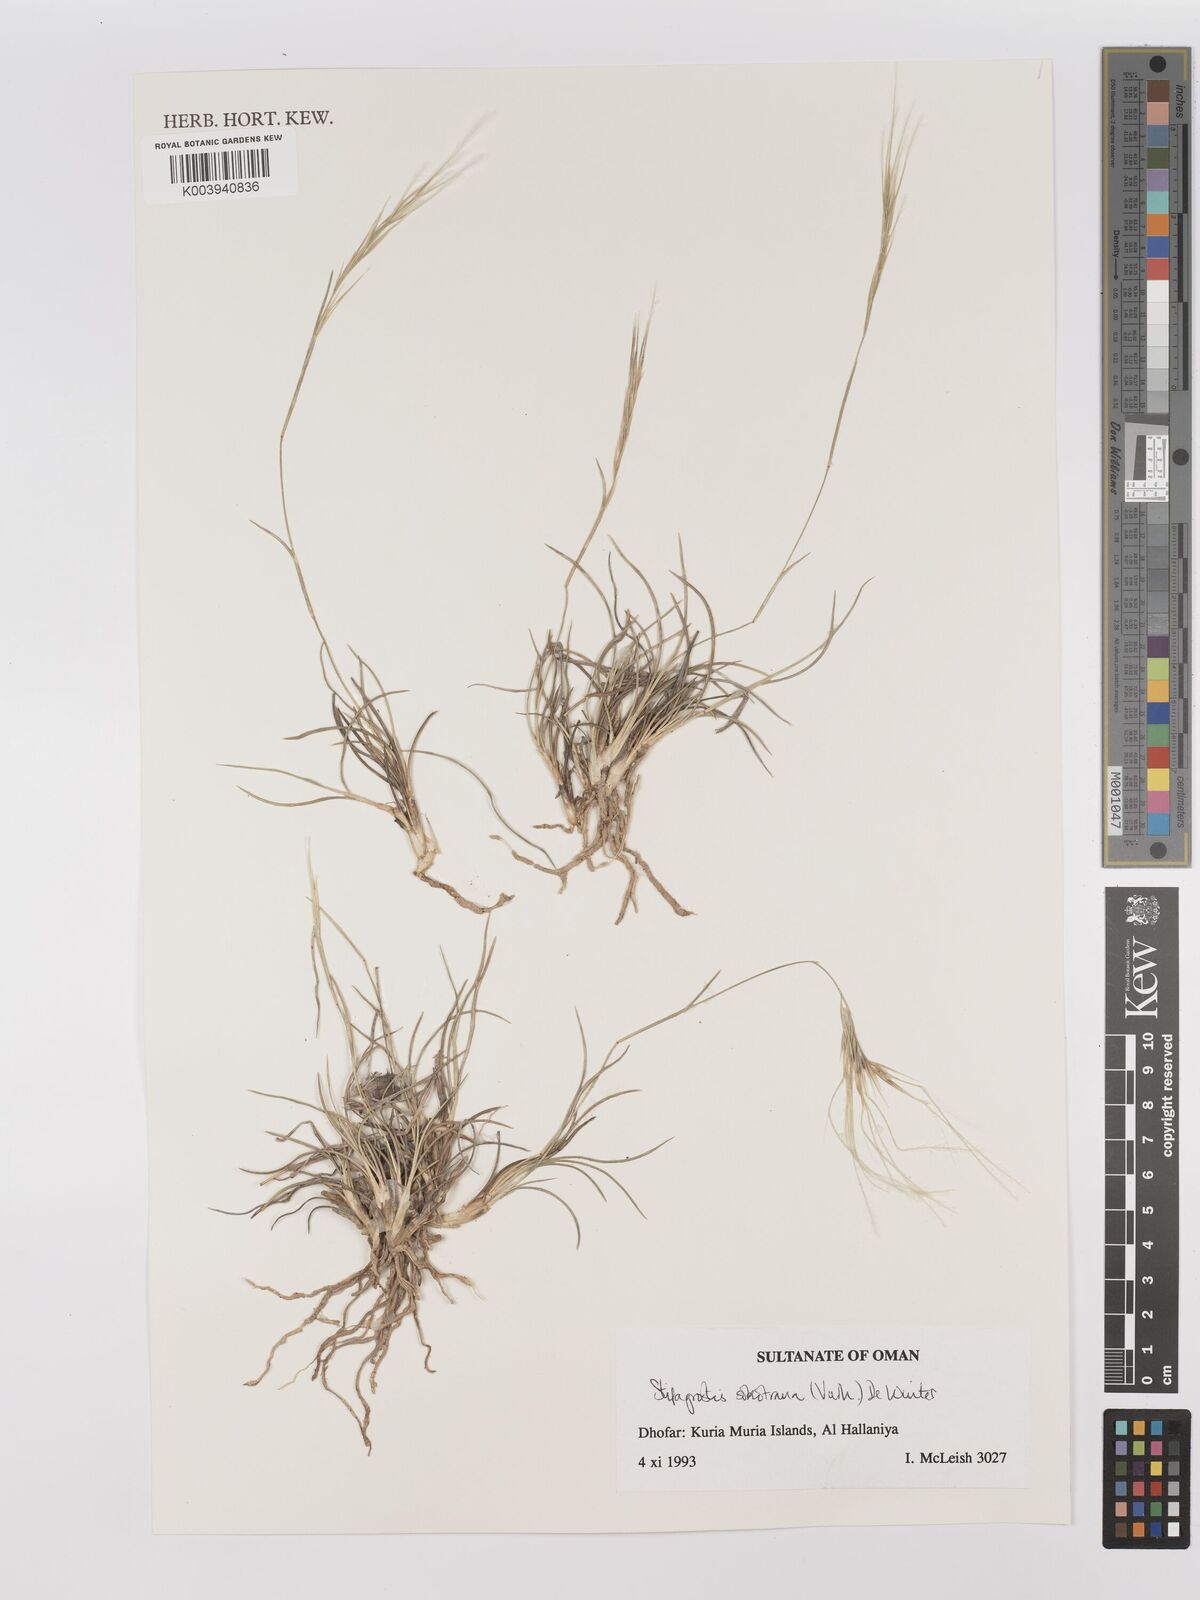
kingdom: Plantae
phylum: Tracheophyta
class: Liliopsida
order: Poales
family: Poaceae
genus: Stipagrostis
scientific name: Stipagrostis sokotrana
